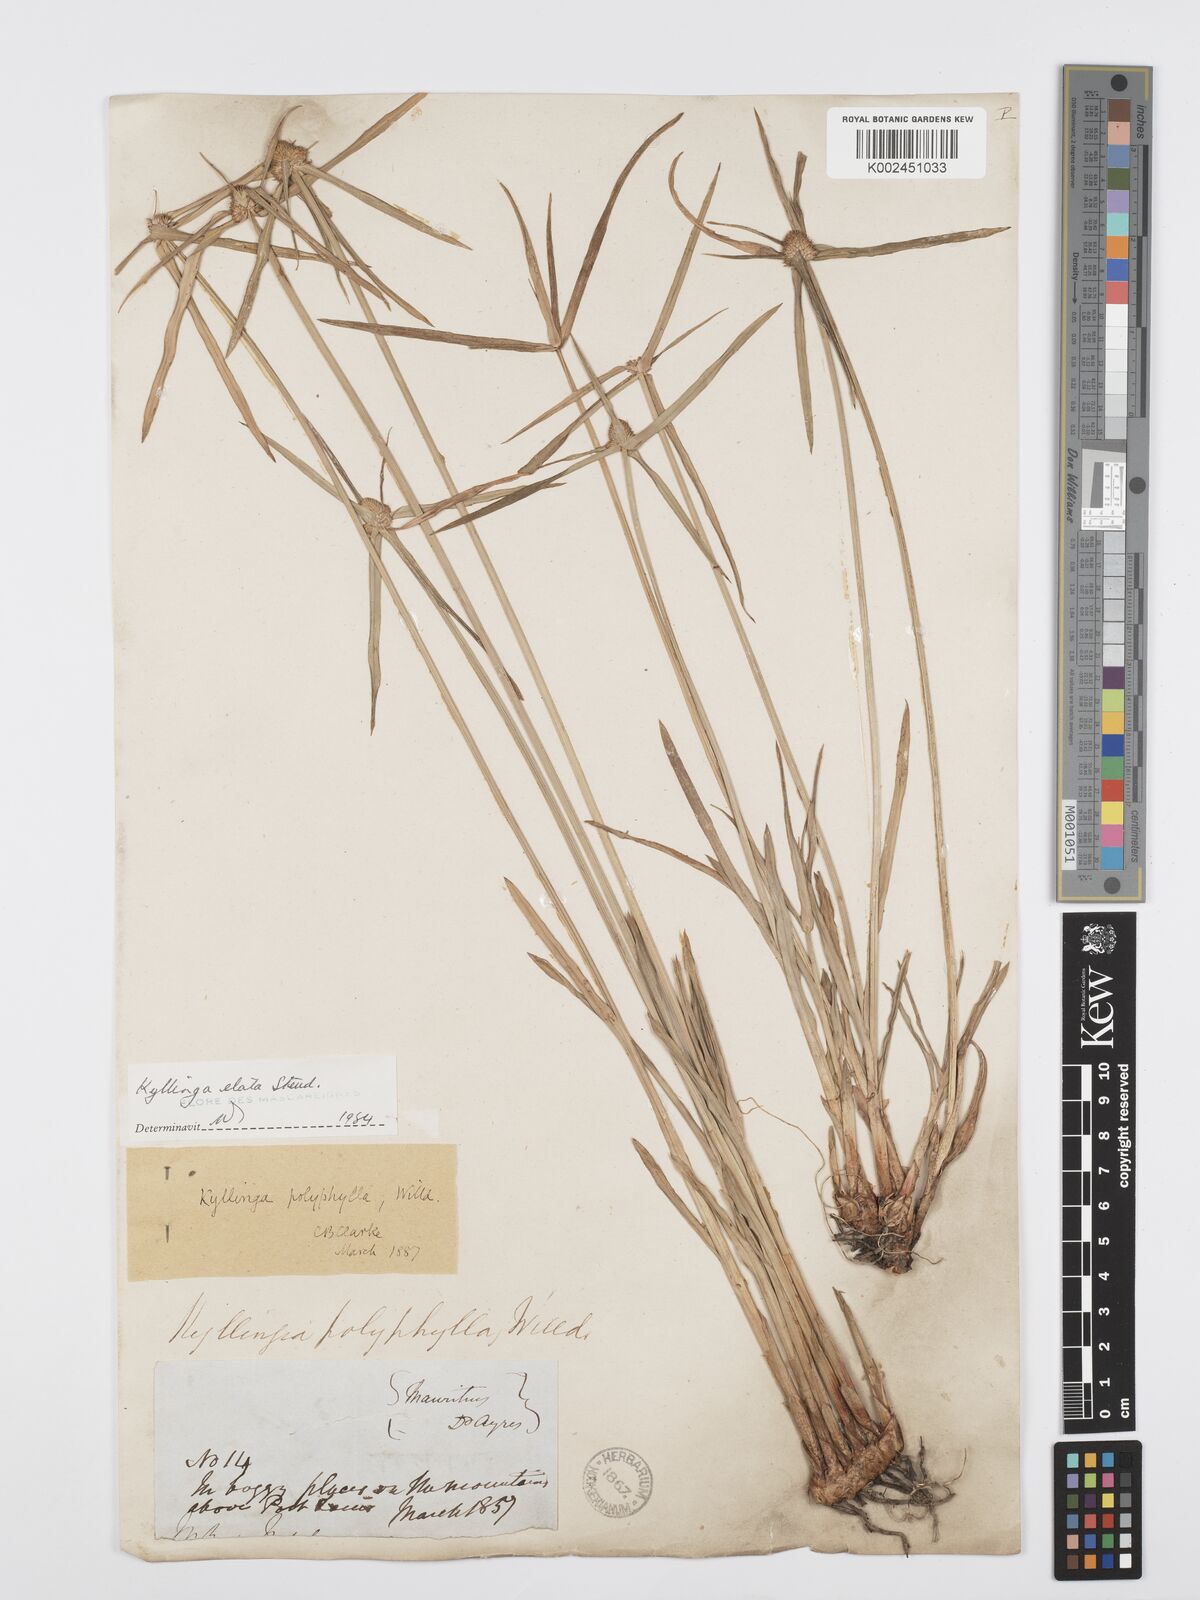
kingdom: Plantae
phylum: Tracheophyta
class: Liliopsida
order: Poales
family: Cyperaceae
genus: Cyperus
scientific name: Cyperus bulbosus
